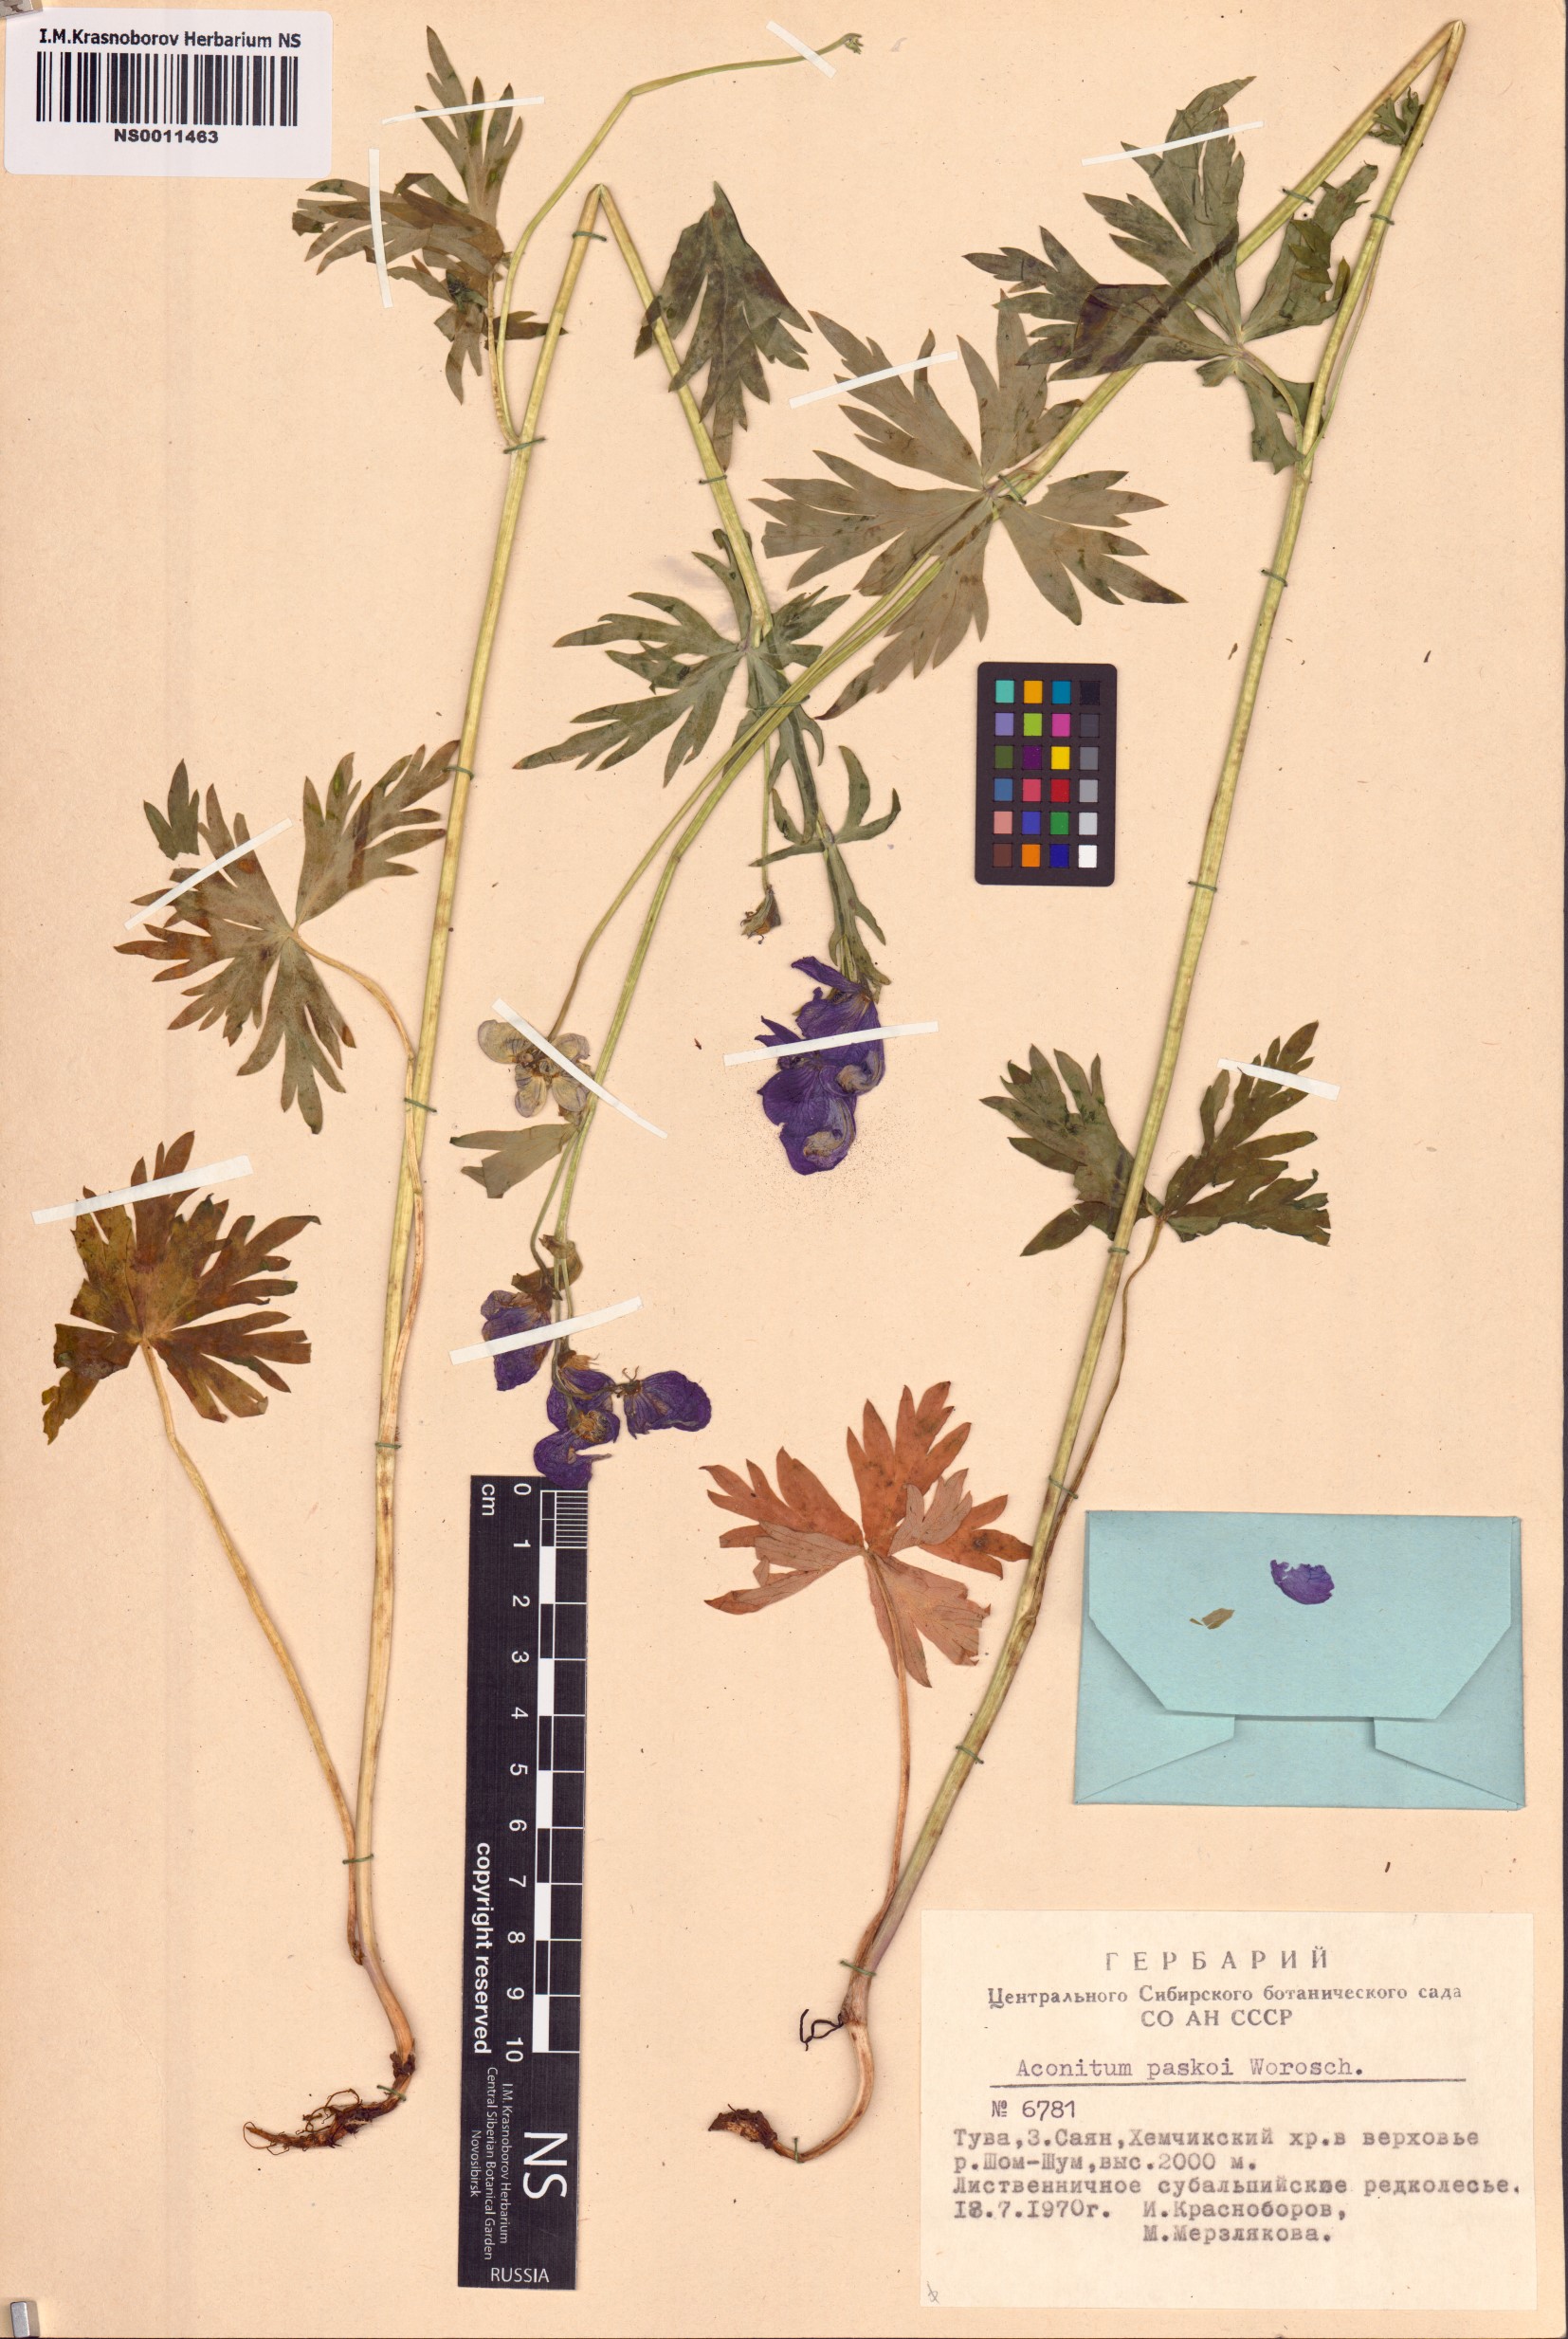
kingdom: Plantae
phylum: Tracheophyta
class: Magnoliopsida
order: Ranunculales
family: Ranunculaceae
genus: Aconitum
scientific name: Aconitum pascoi
